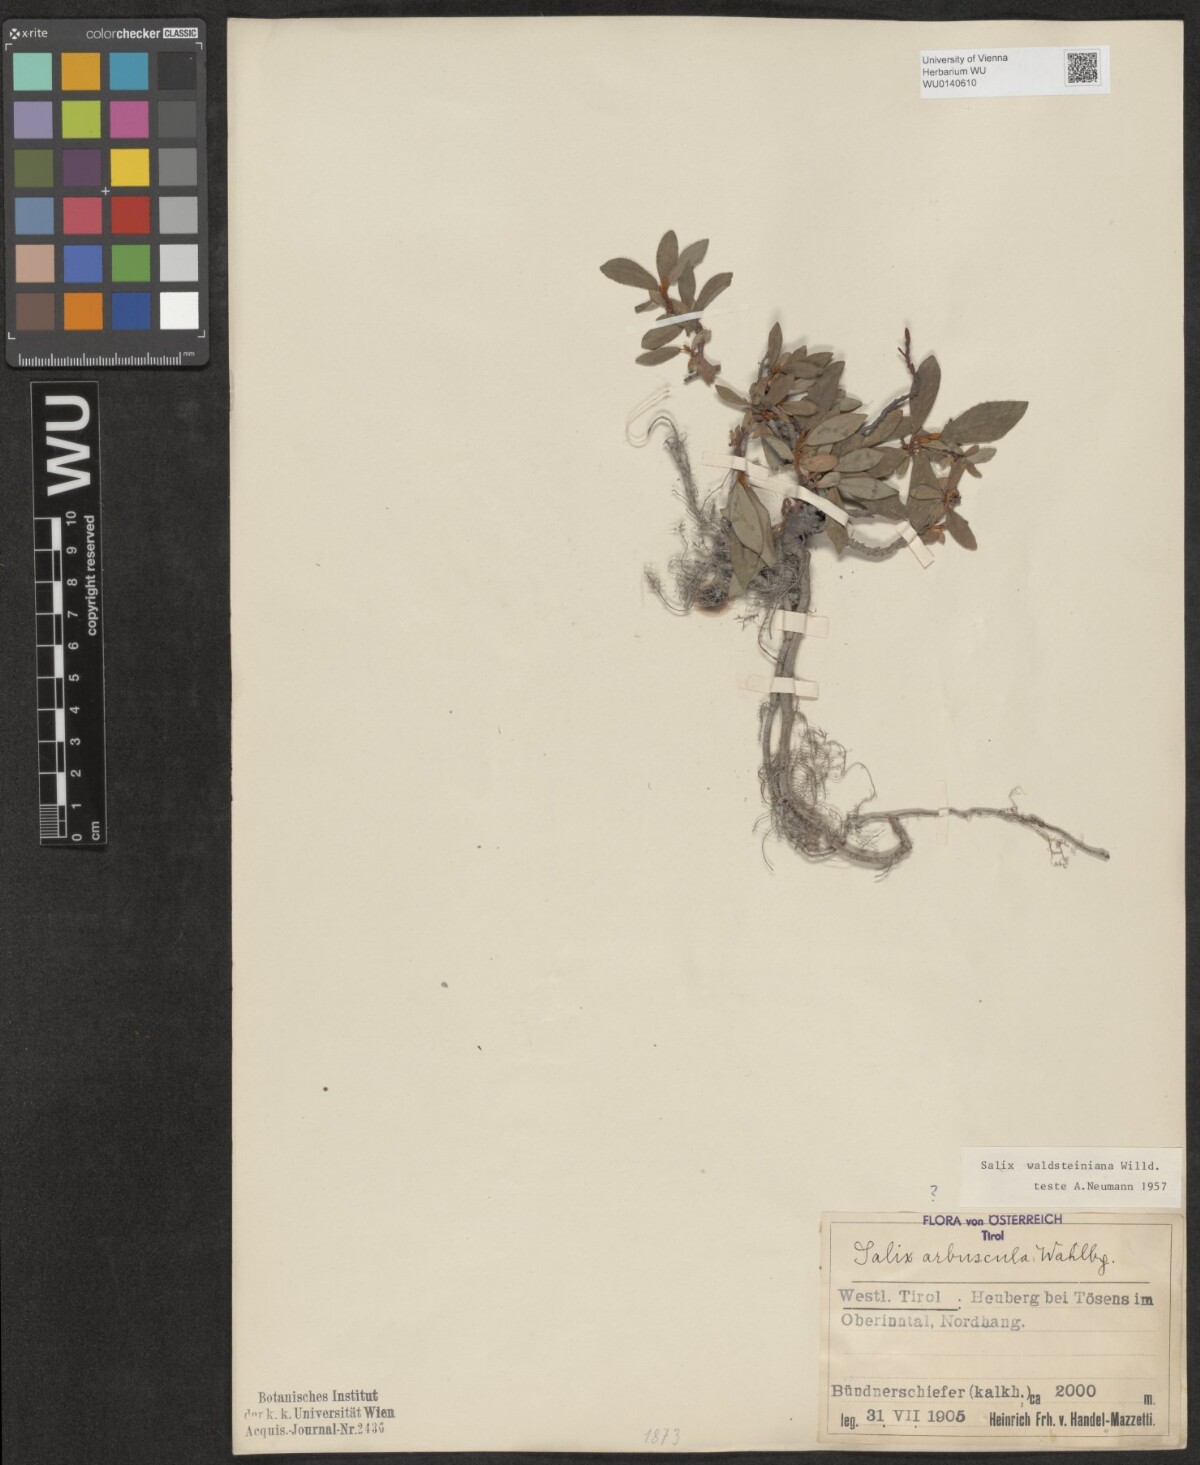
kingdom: Plantae
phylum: Tracheophyta
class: Magnoliopsida
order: Malpighiales
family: Salicaceae
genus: Salix
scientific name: Salix waldsteiniana
